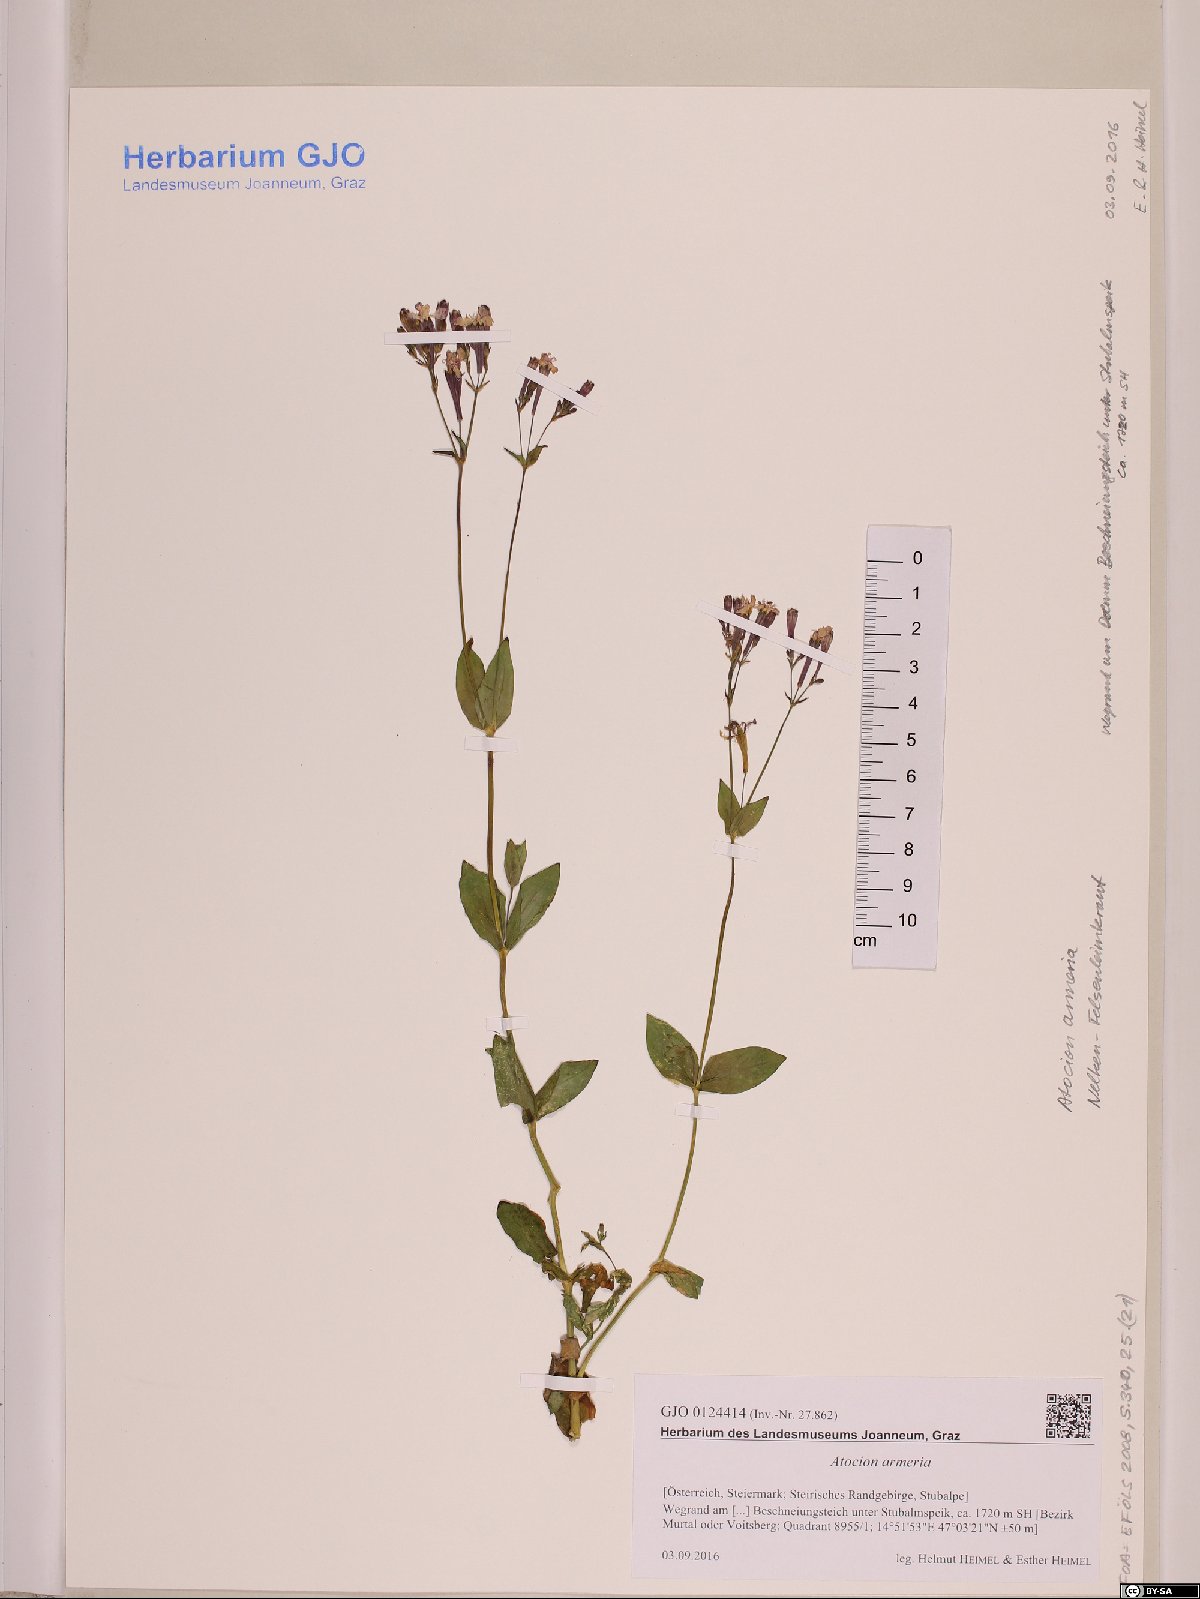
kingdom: Plantae
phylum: Tracheophyta
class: Magnoliopsida
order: Caryophyllales
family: Caryophyllaceae
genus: Atocion
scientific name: Atocion armeria
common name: Sweet william catchfly
